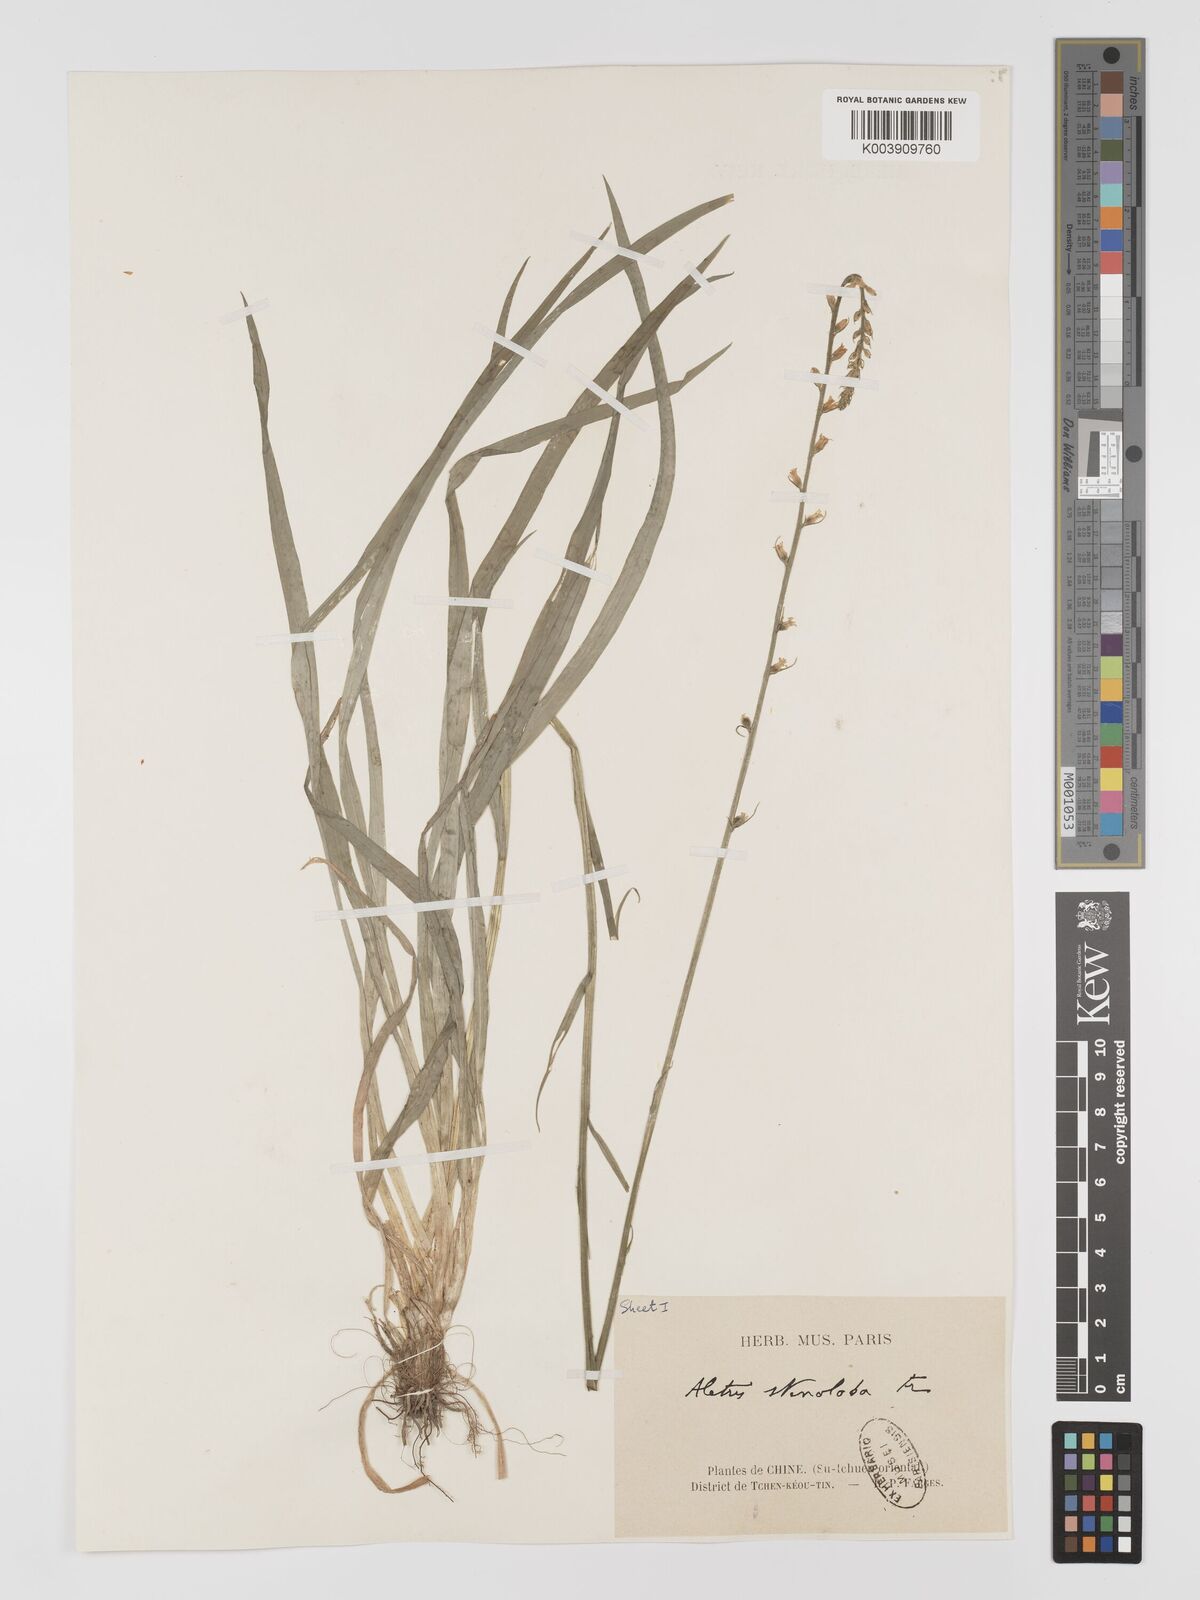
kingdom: Plantae
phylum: Tracheophyta
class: Liliopsida
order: Dioscoreales
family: Nartheciaceae
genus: Aletris
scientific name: Aletris stenoloba
